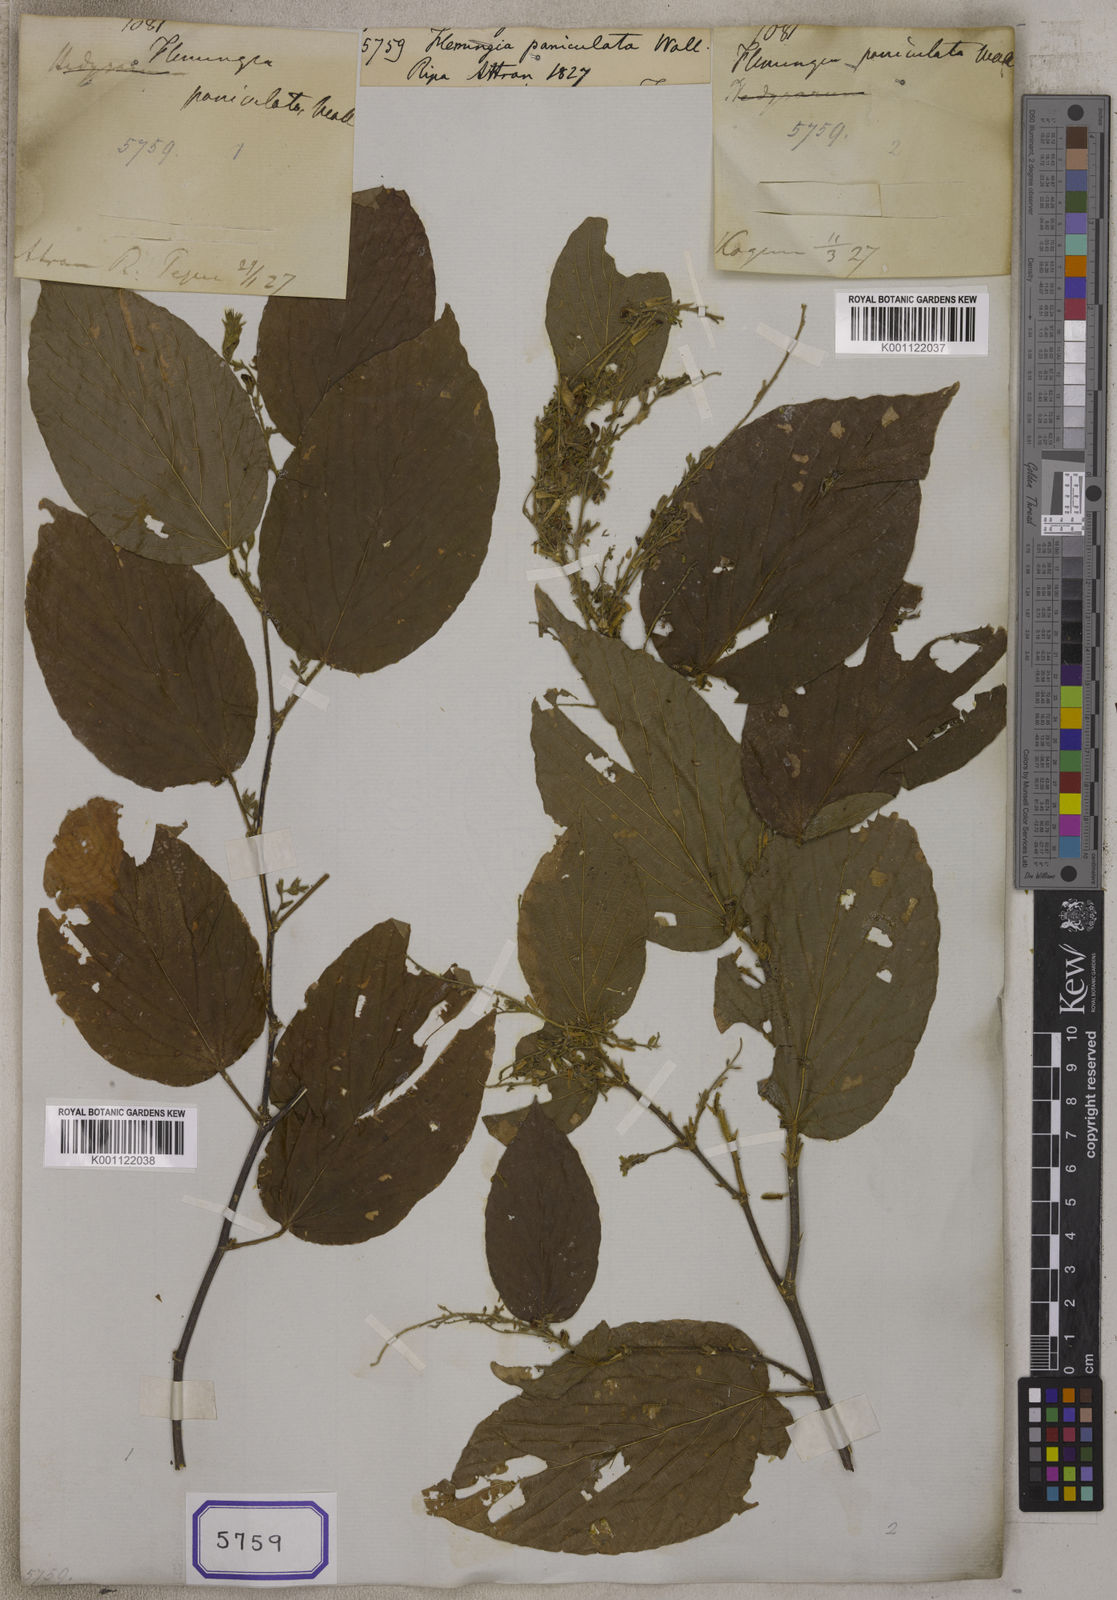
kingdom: Plantae
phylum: Tracheophyta
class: Magnoliopsida
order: Fabales
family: Fabaceae
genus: Flemingia
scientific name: Flemingia
